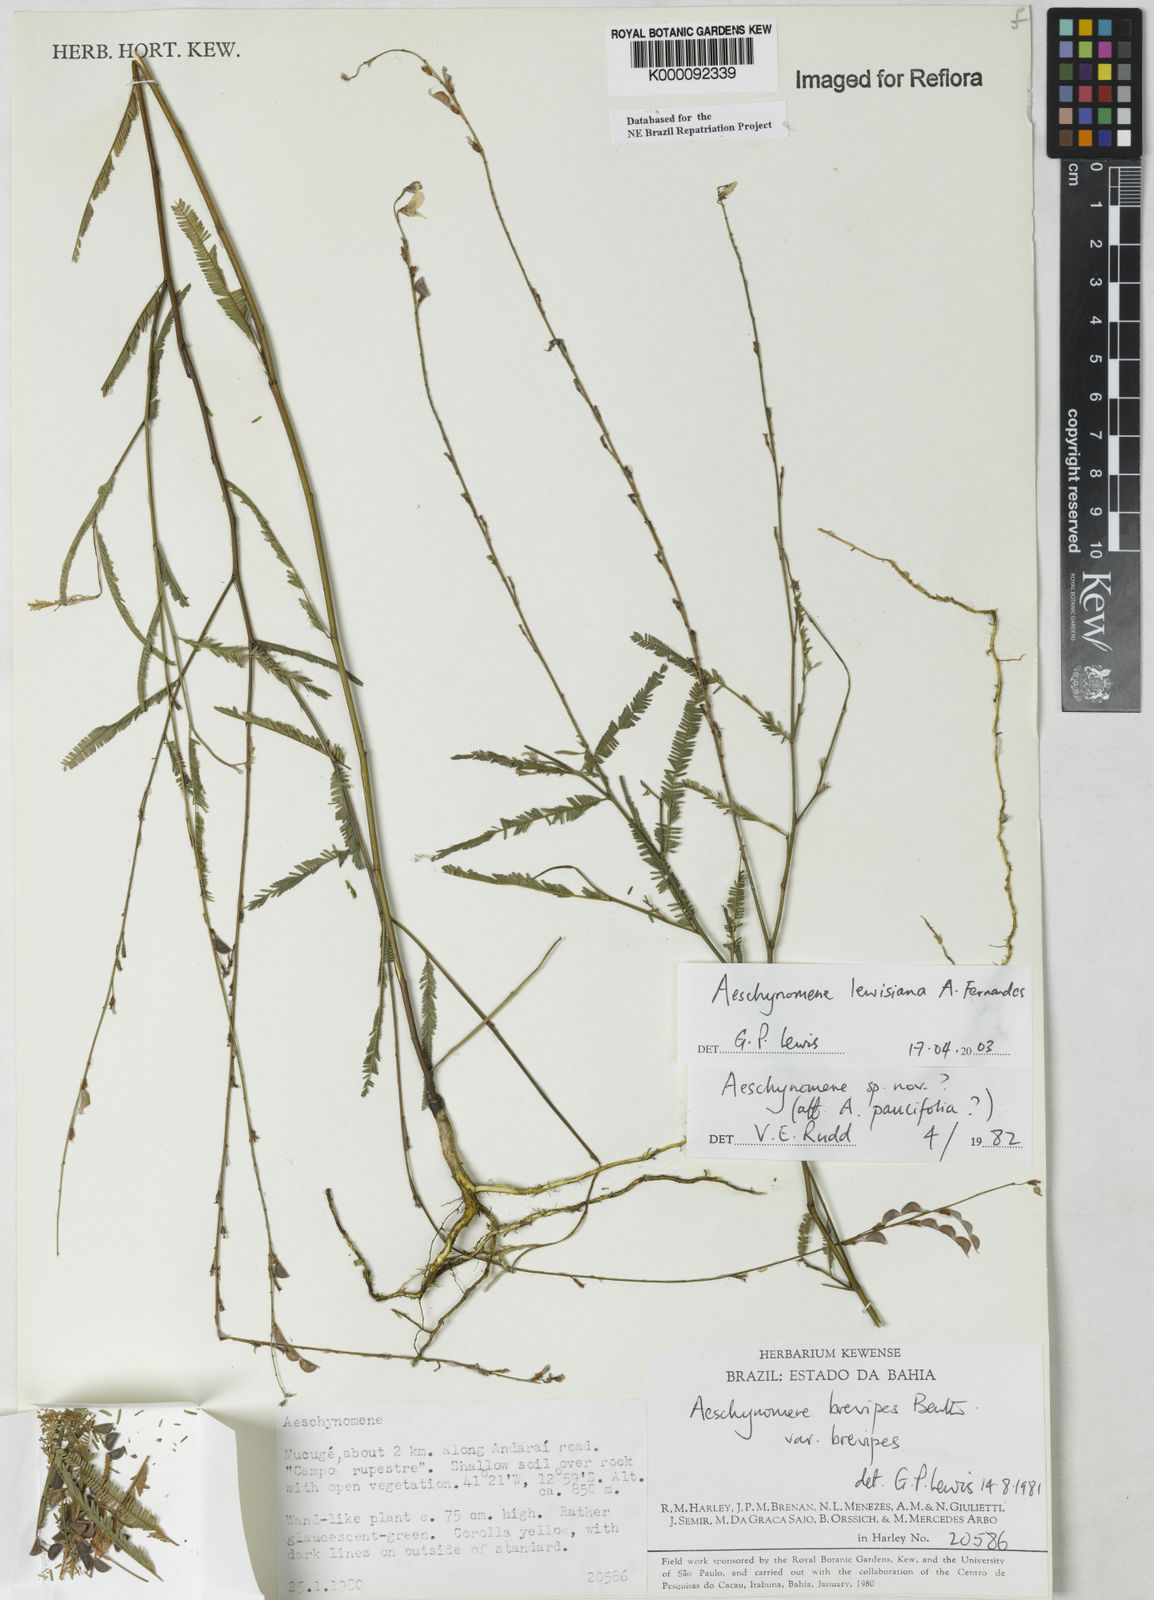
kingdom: Plantae
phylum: Tracheophyta
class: Magnoliopsida
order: Fabales
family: Fabaceae
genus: Ctenodon
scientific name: Ctenodon lewisianus
